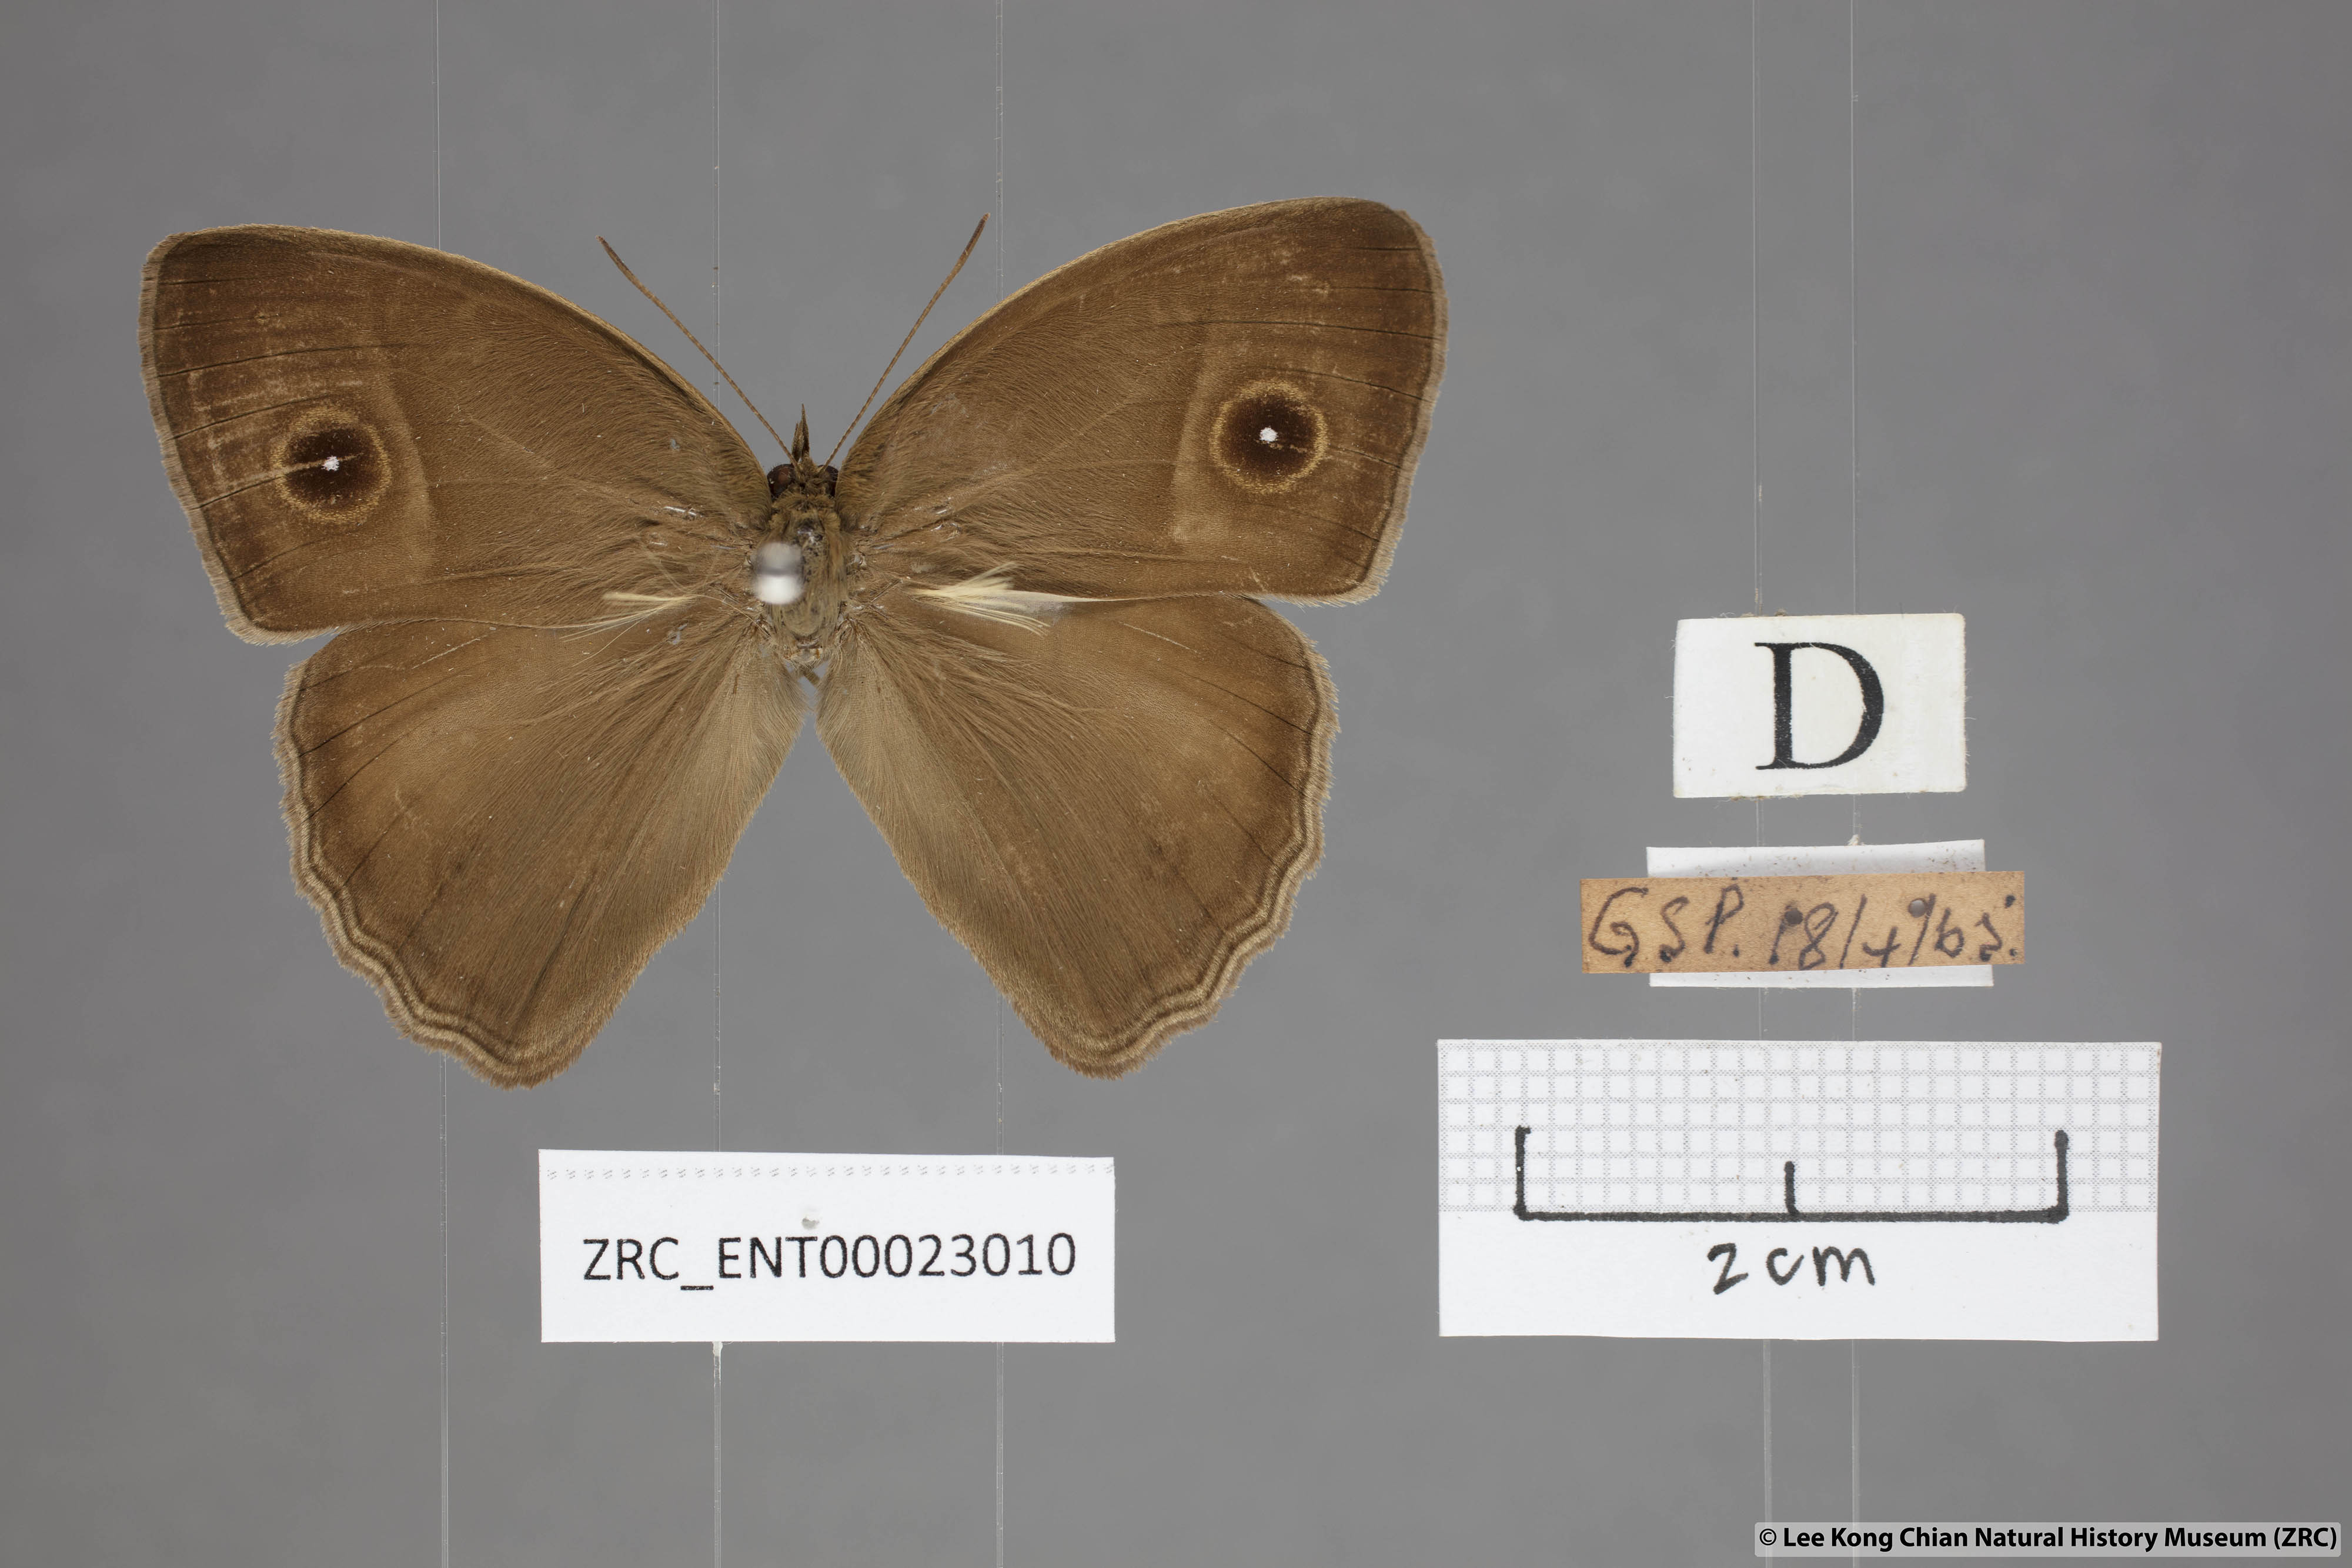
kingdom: Animalia
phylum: Arthropoda
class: Insecta
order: Lepidoptera
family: Nymphalidae
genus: Mycalesis
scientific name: Mycalesis visala
